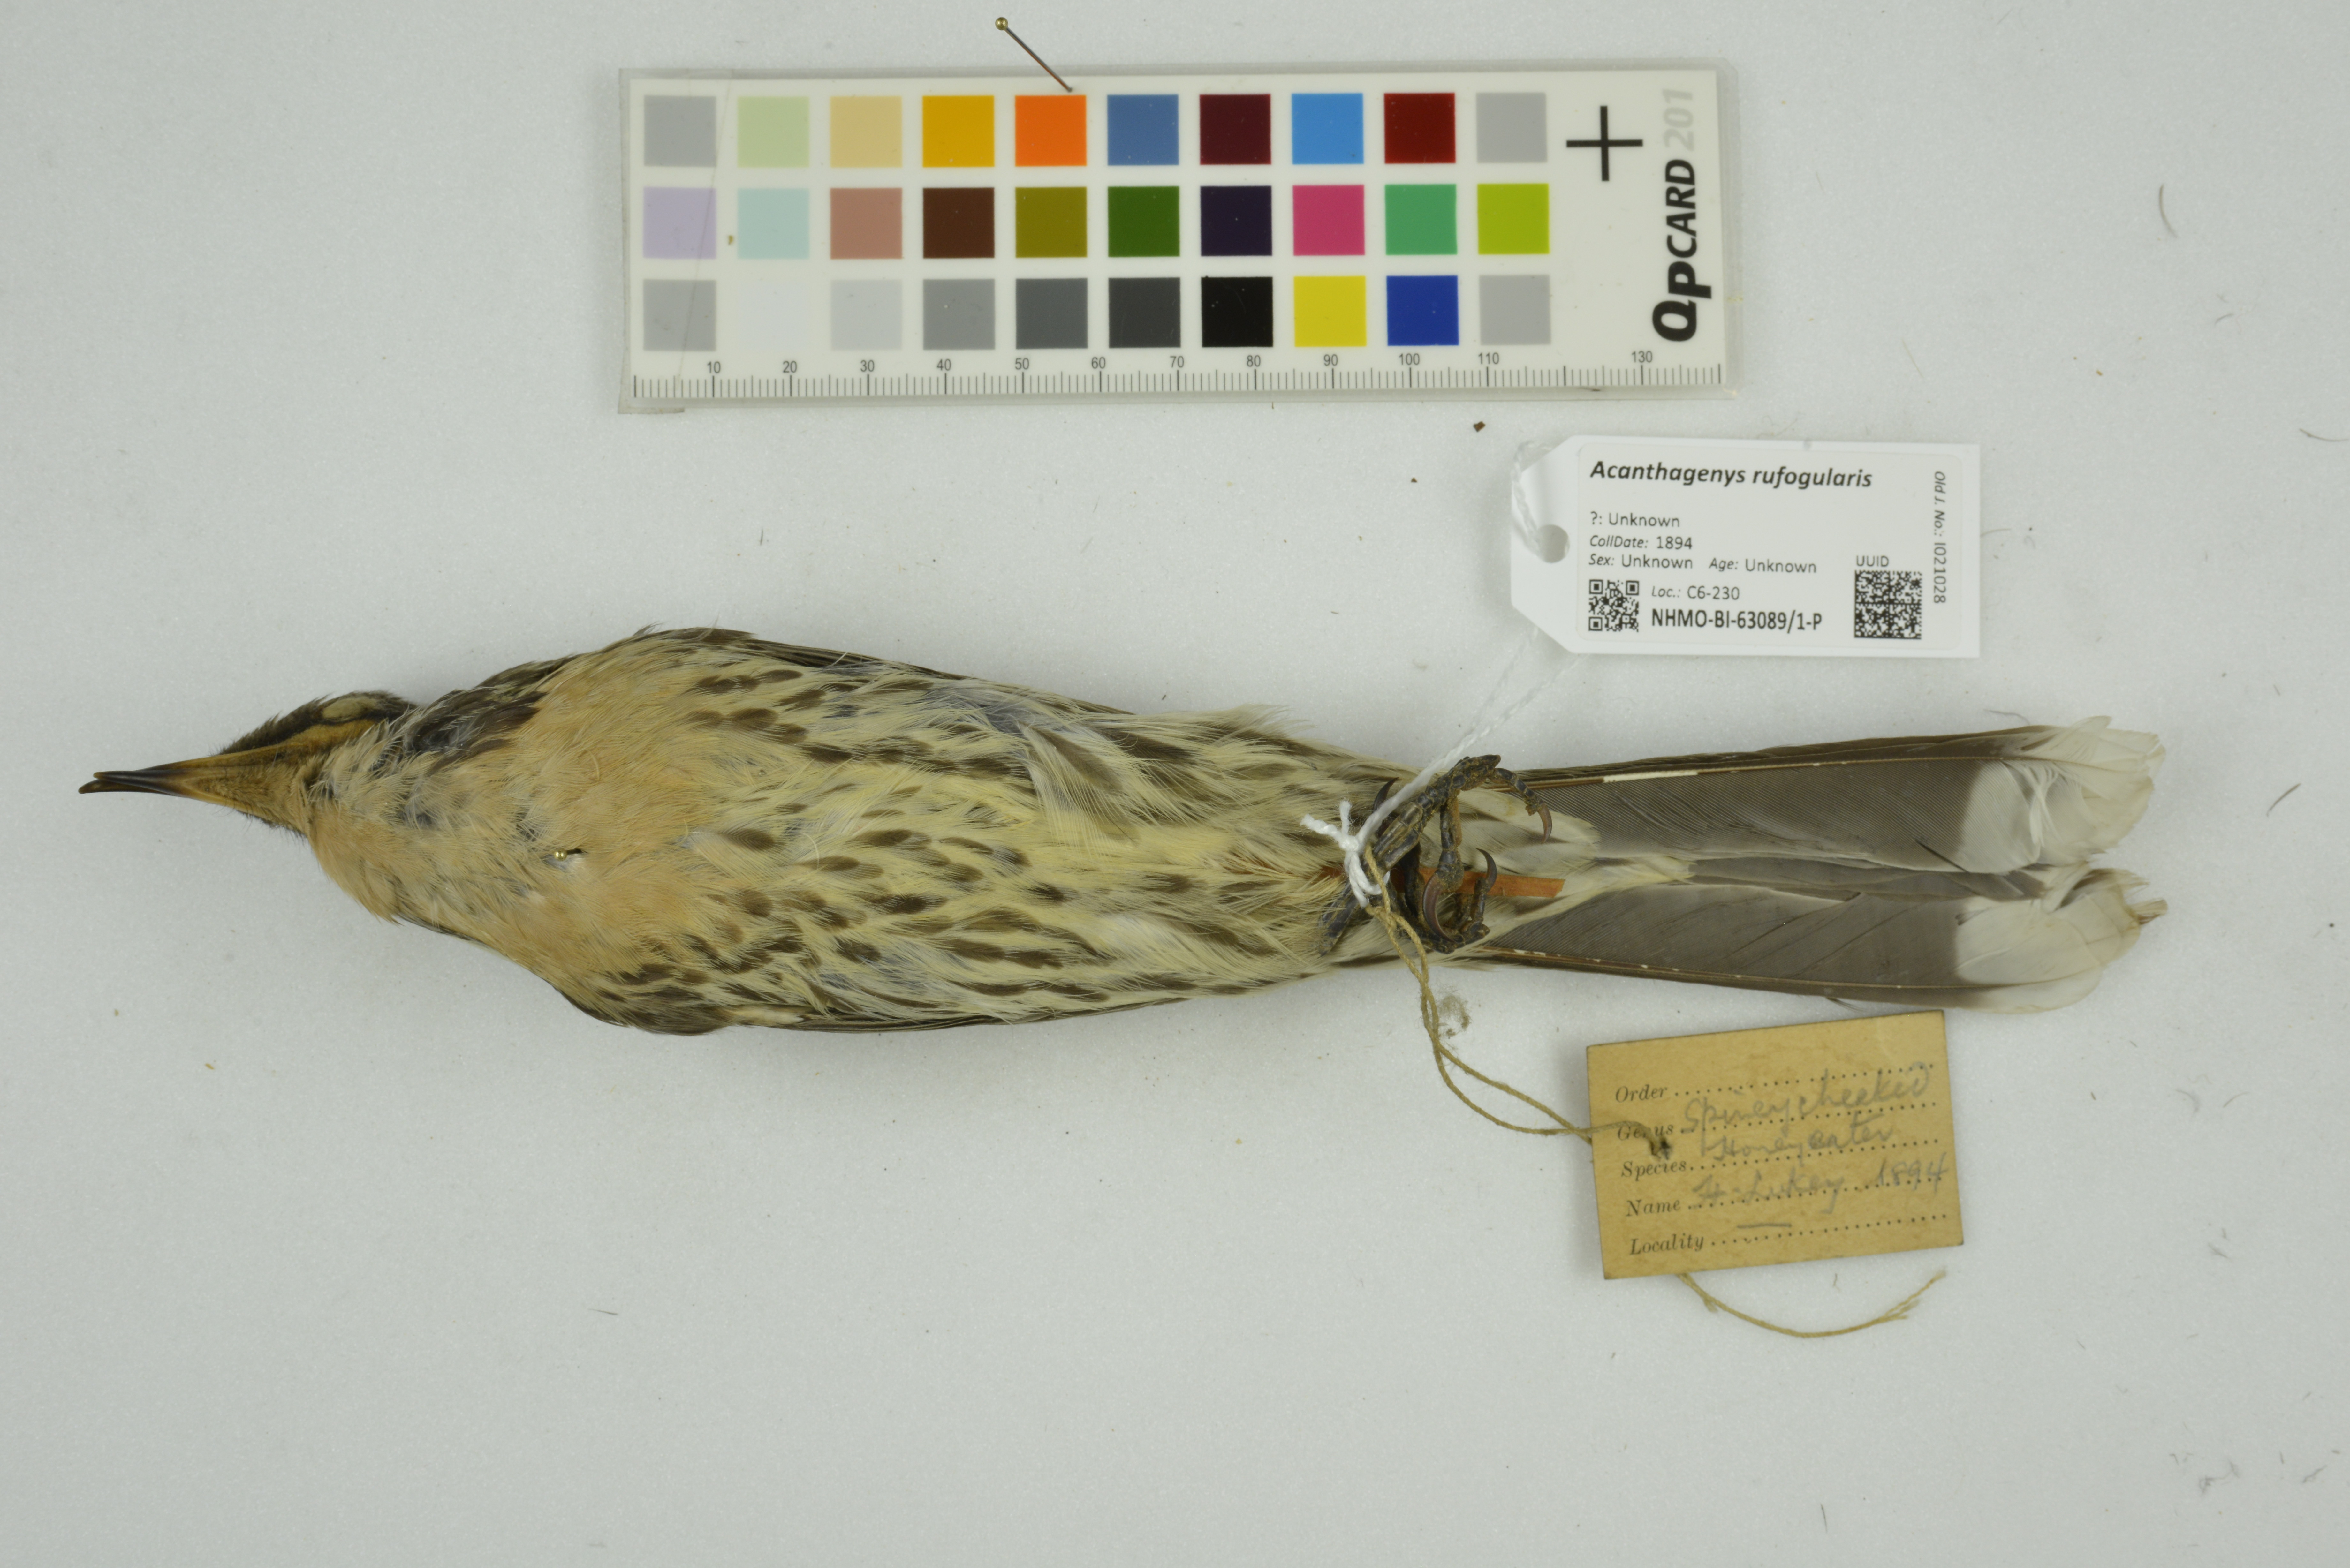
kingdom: Animalia
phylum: Chordata
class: Aves
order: Passeriformes
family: Meliphagidae
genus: Acanthagenys
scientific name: Acanthagenys rufogularis
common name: Spiny-cheeked honeyeater
